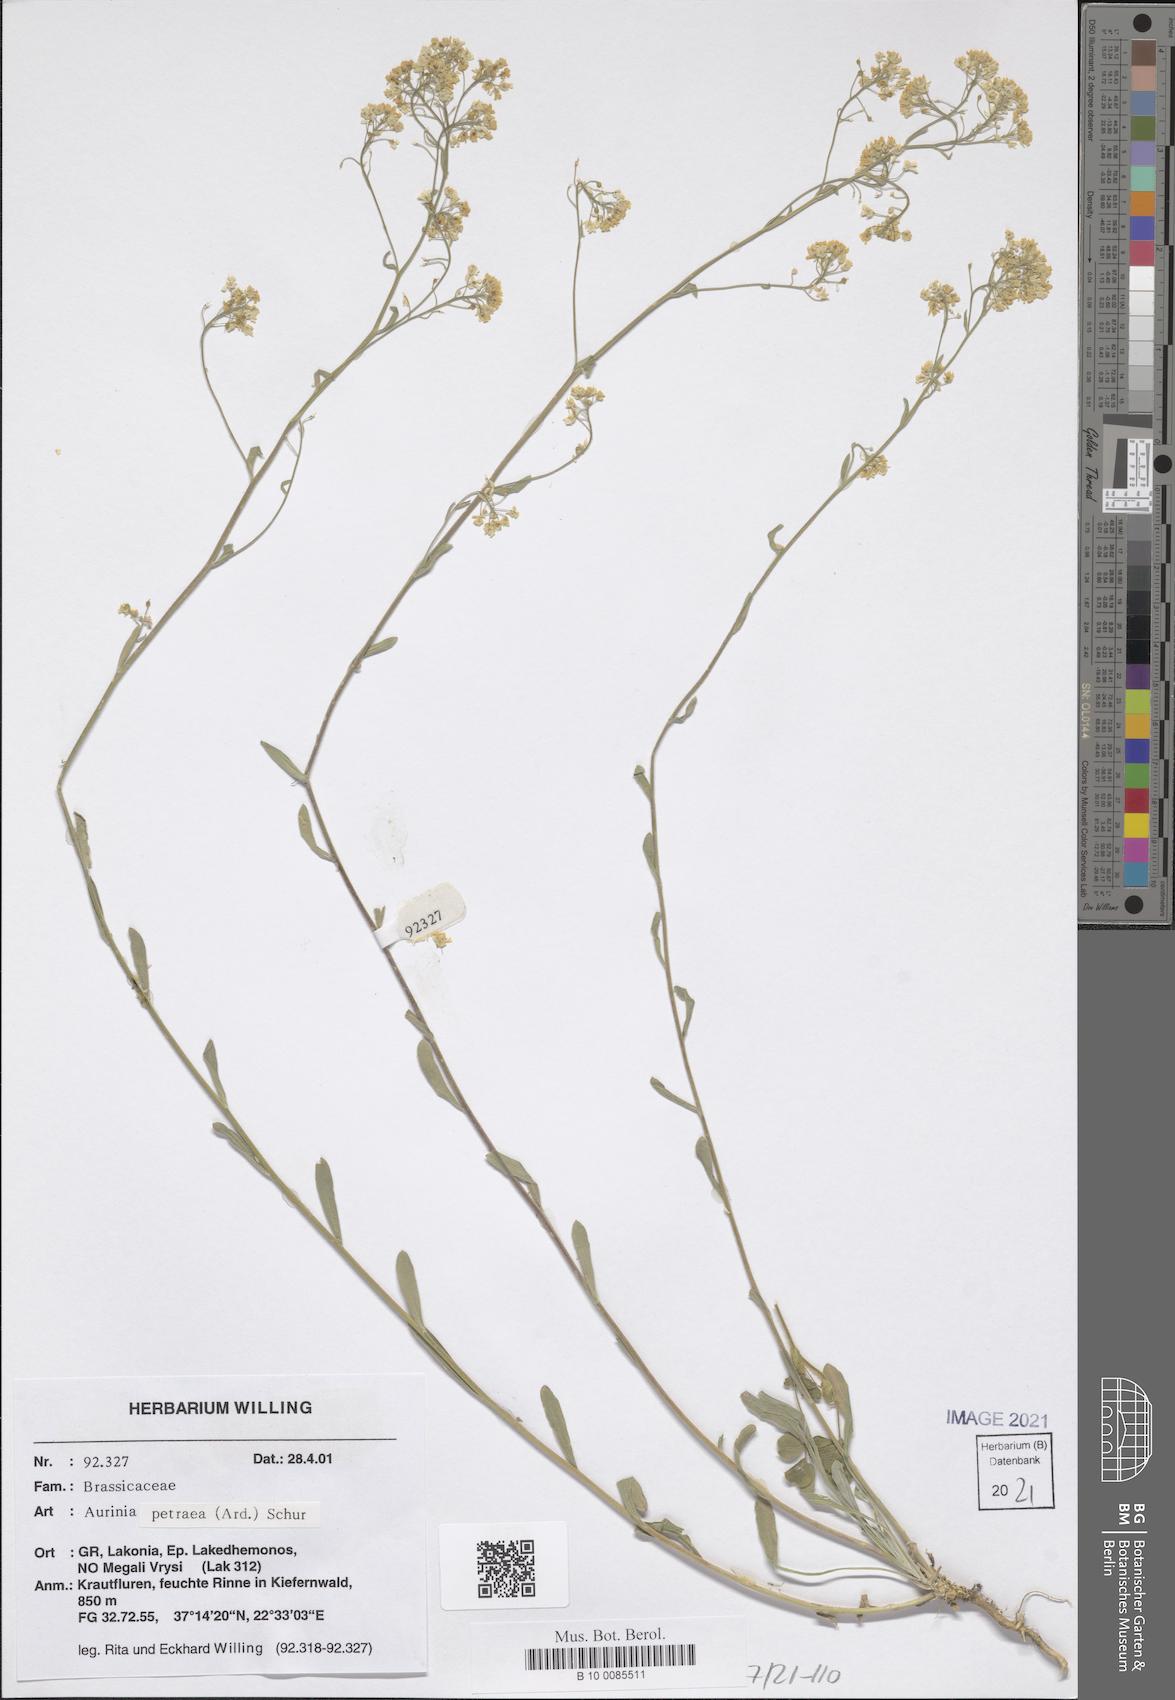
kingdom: Plantae
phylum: Tracheophyta
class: Magnoliopsida
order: Brassicales
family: Brassicaceae
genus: Aurinia
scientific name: Aurinia petraea
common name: Goldentuft
